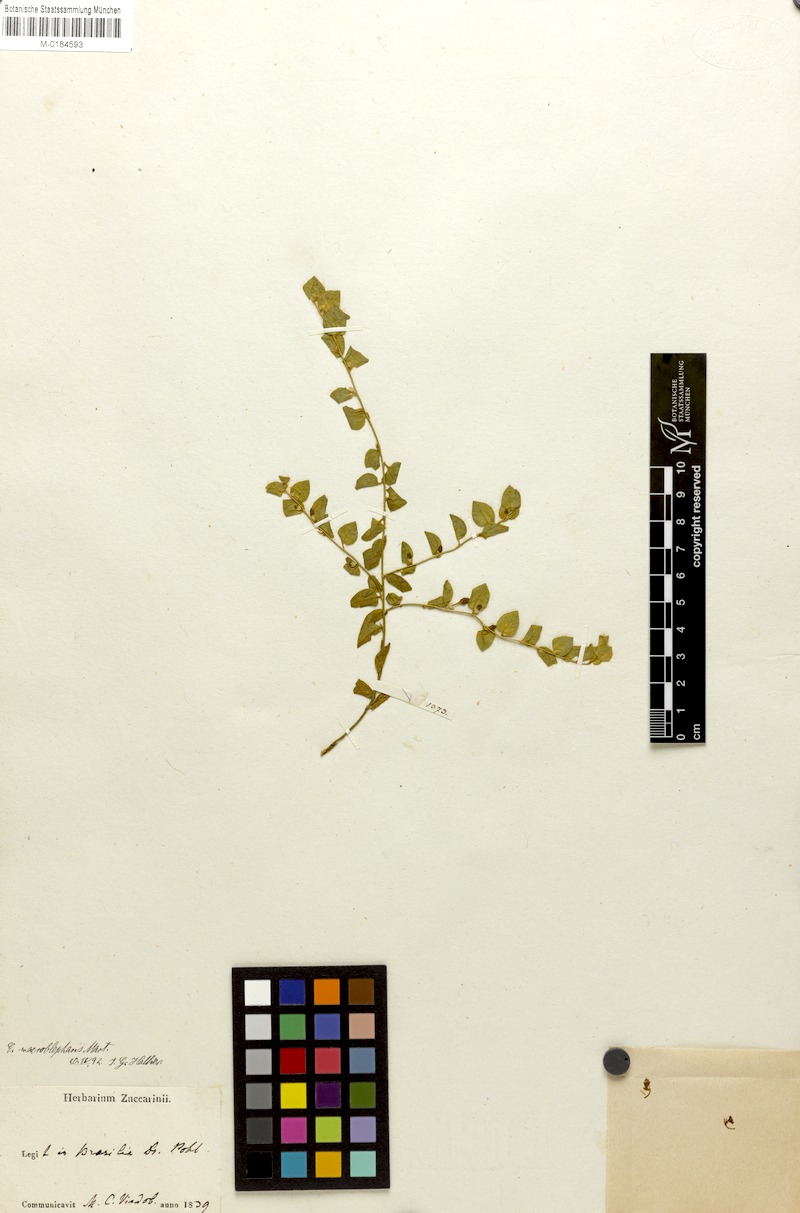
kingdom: Plantae
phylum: Tracheophyta
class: Magnoliopsida
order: Solanales
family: Convolvulaceae
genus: Evolvulus
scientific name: Evolvulus macroblepharis
